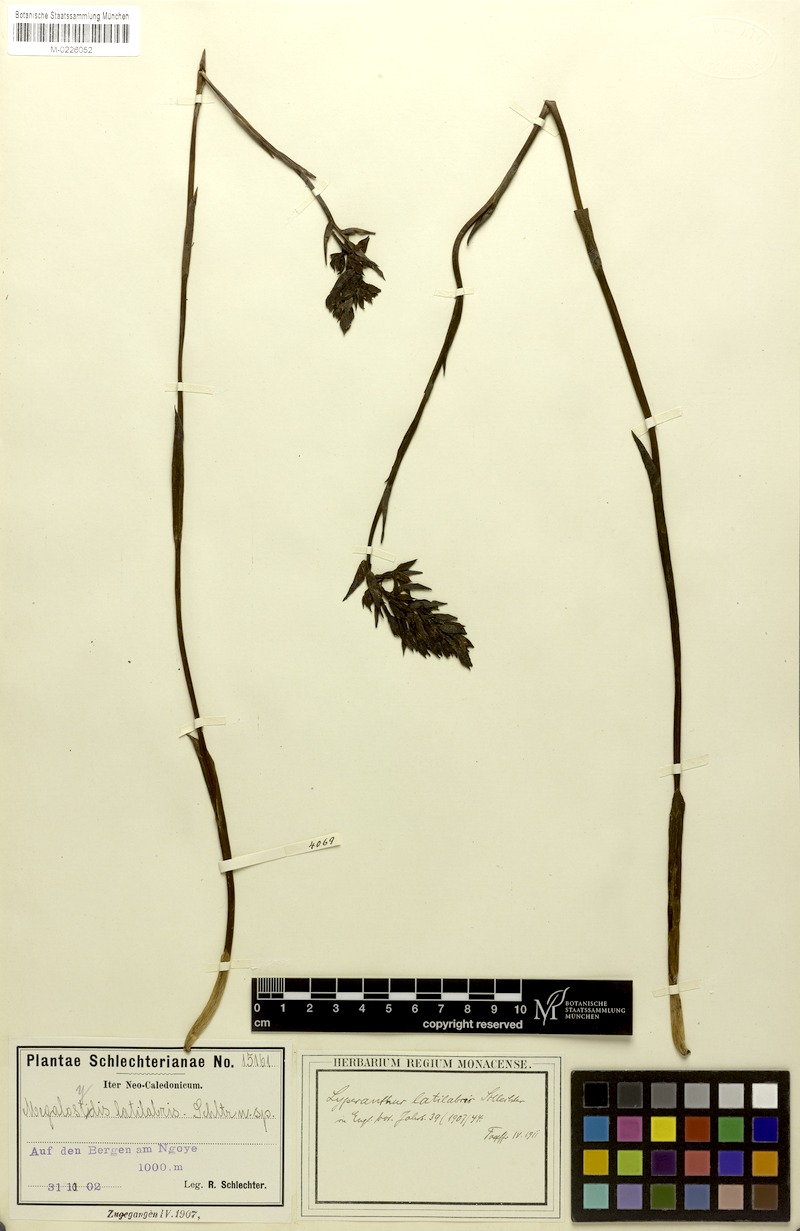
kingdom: Plantae
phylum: Tracheophyta
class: Liliopsida
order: Asparagales
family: Orchidaceae
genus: Megastylis
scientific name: Megastylis latilabris
